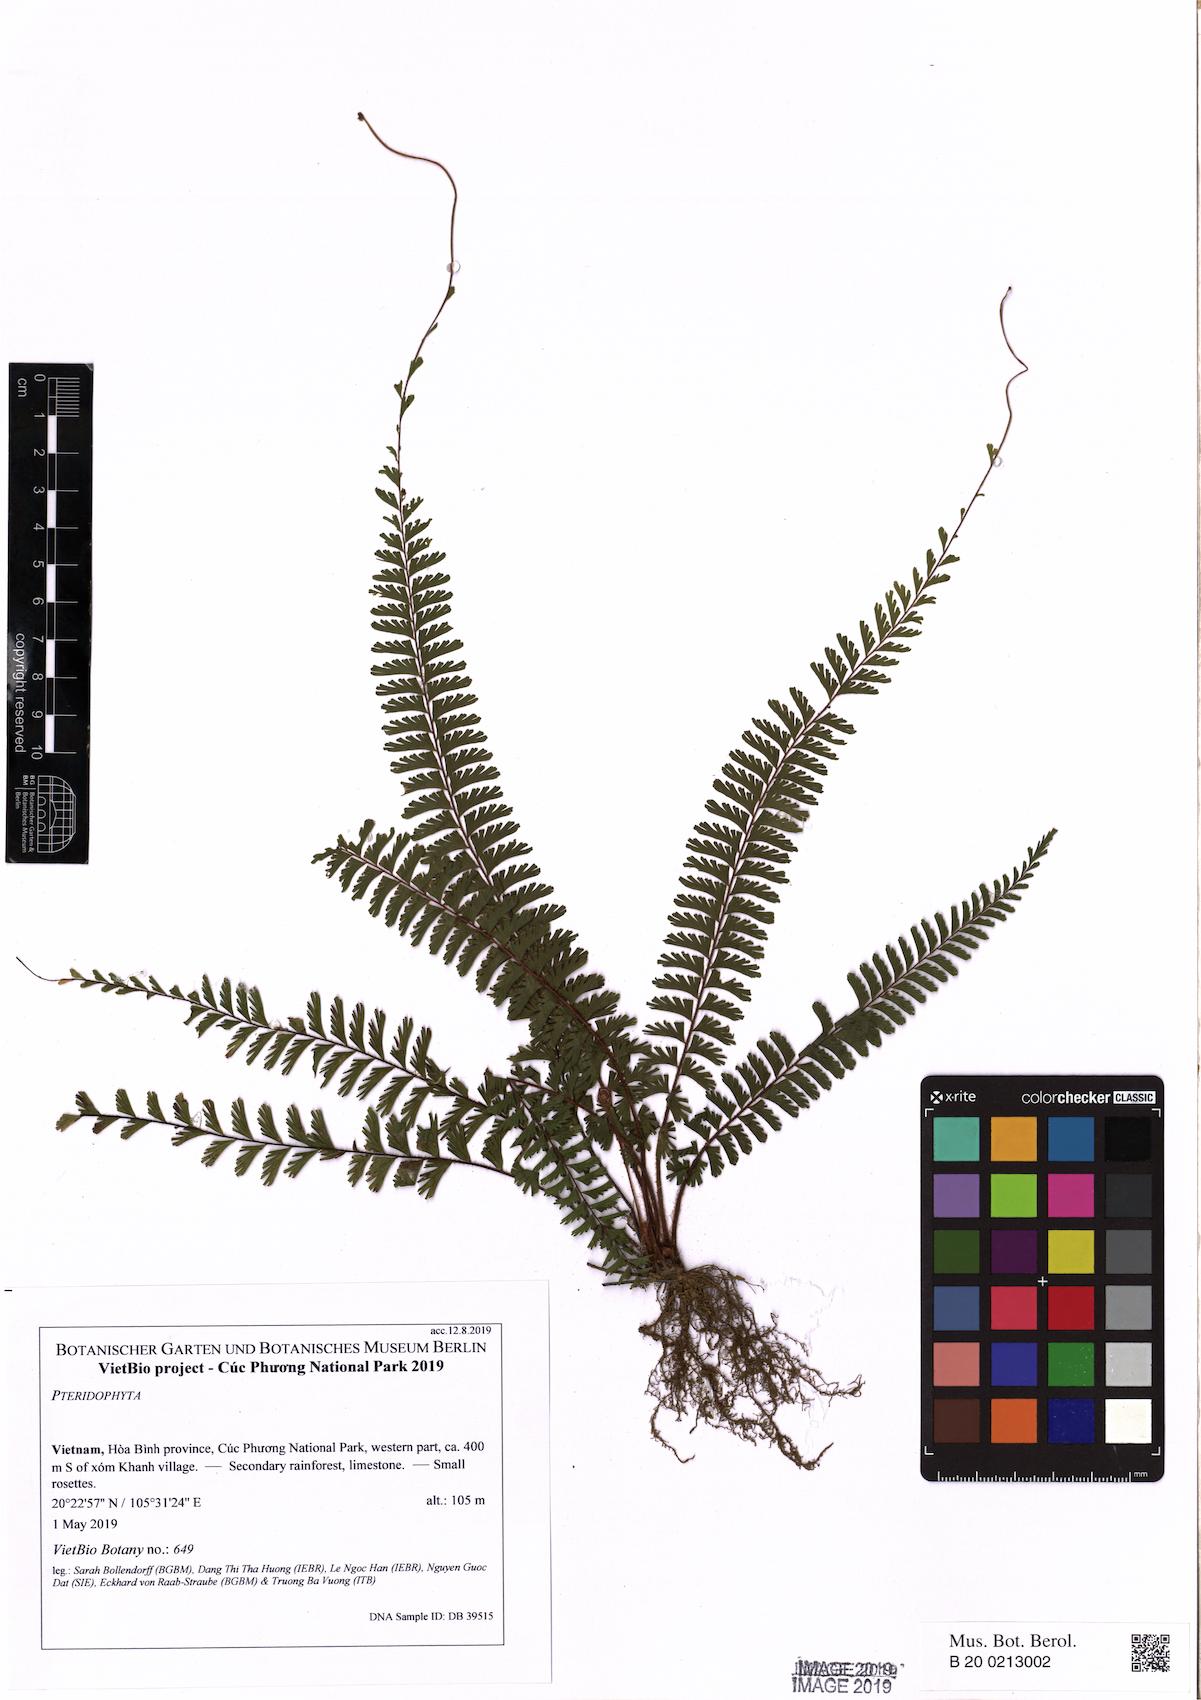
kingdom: Plantae
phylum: Tracheophyta
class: Polypodiopsida
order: Polypodiales
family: Pteridaceae
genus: Adiantum
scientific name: Adiantum caudatum
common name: Tailed maidenhair
